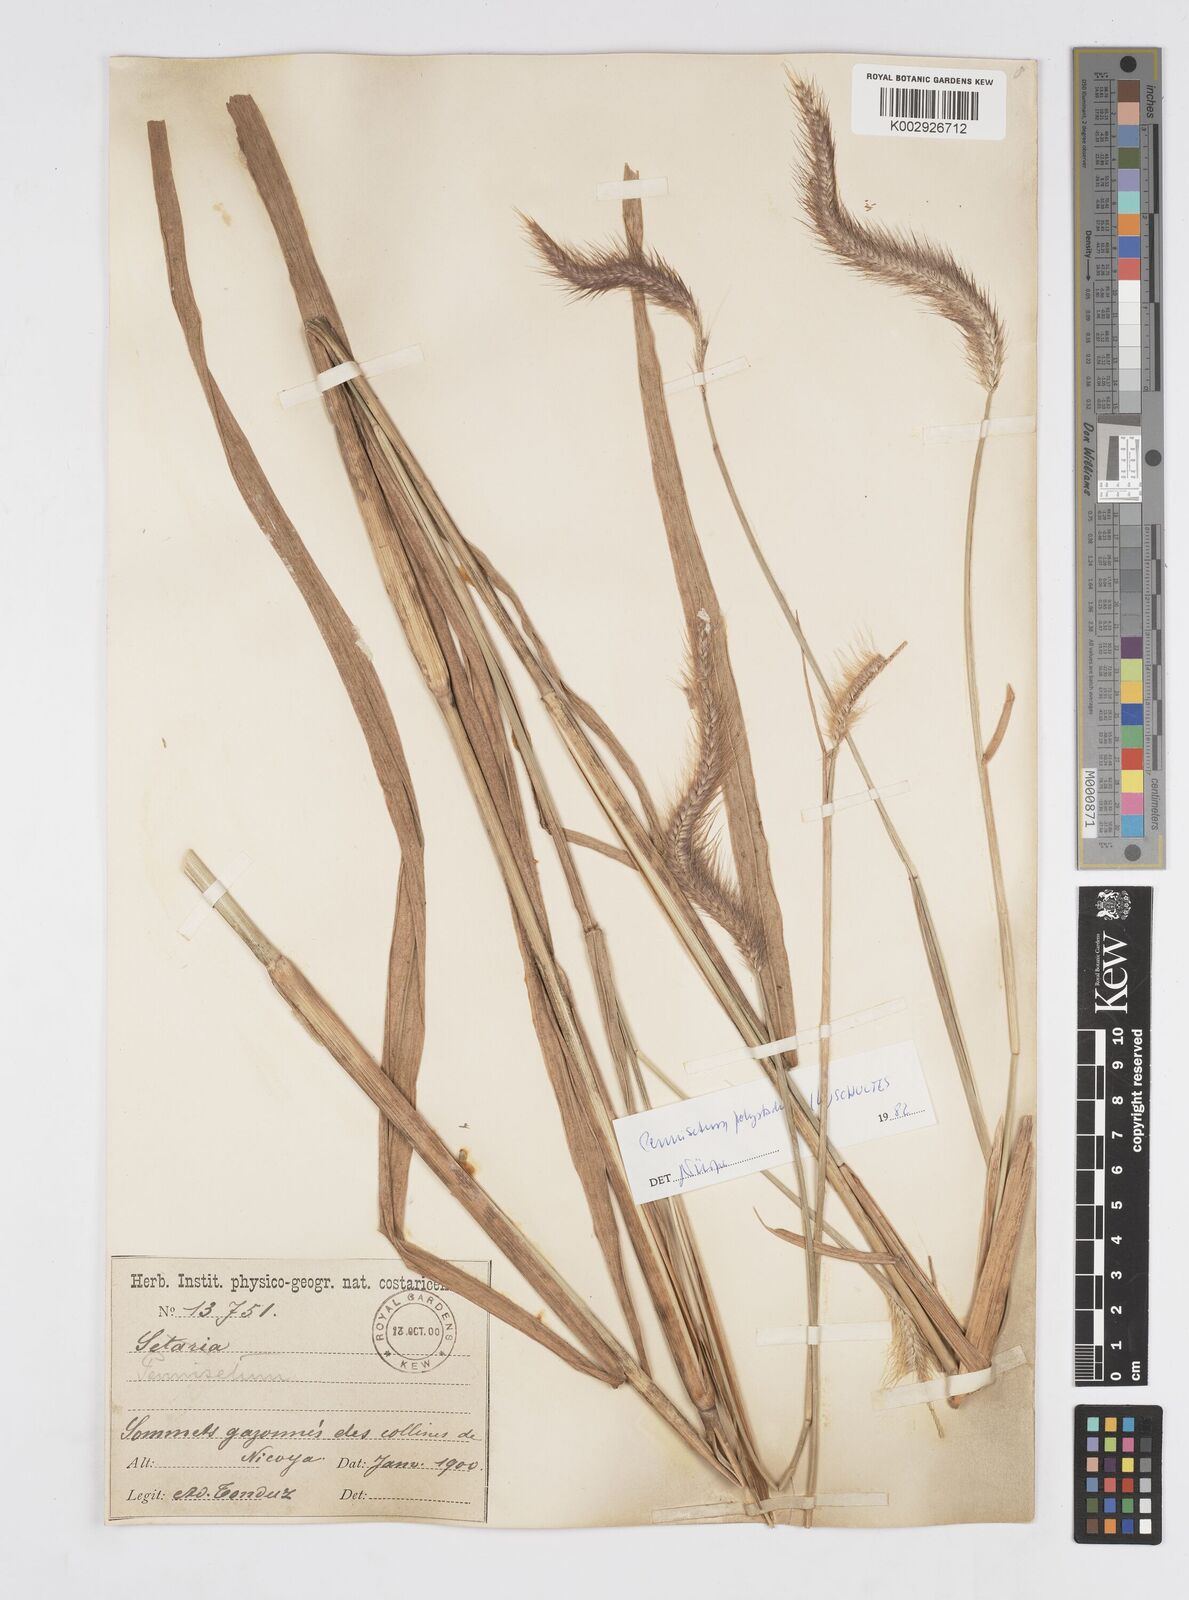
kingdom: Plantae
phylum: Tracheophyta
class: Liliopsida
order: Poales
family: Poaceae
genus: Cenchrus
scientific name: Cenchrus setosus
